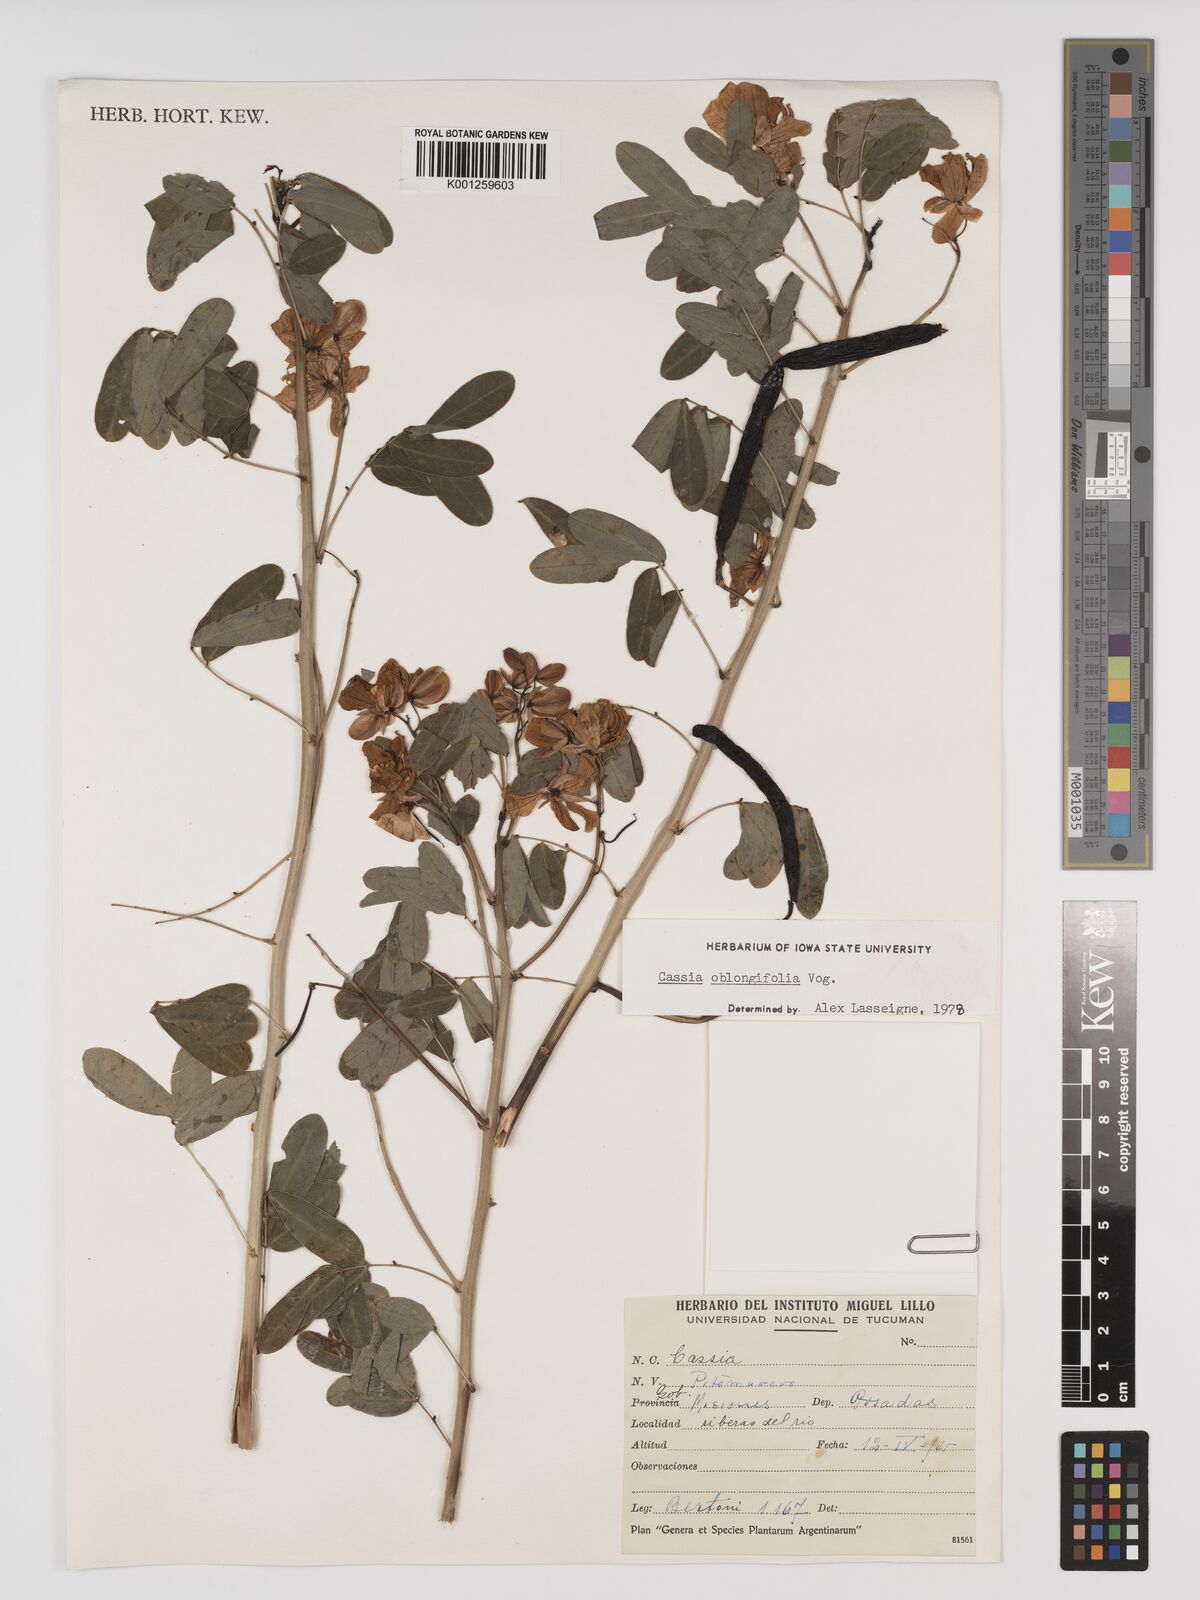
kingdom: Plantae
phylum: Tracheophyta
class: Magnoliopsida
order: Fabales
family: Fabaceae
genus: Senna
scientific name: Senna oblongifolia
